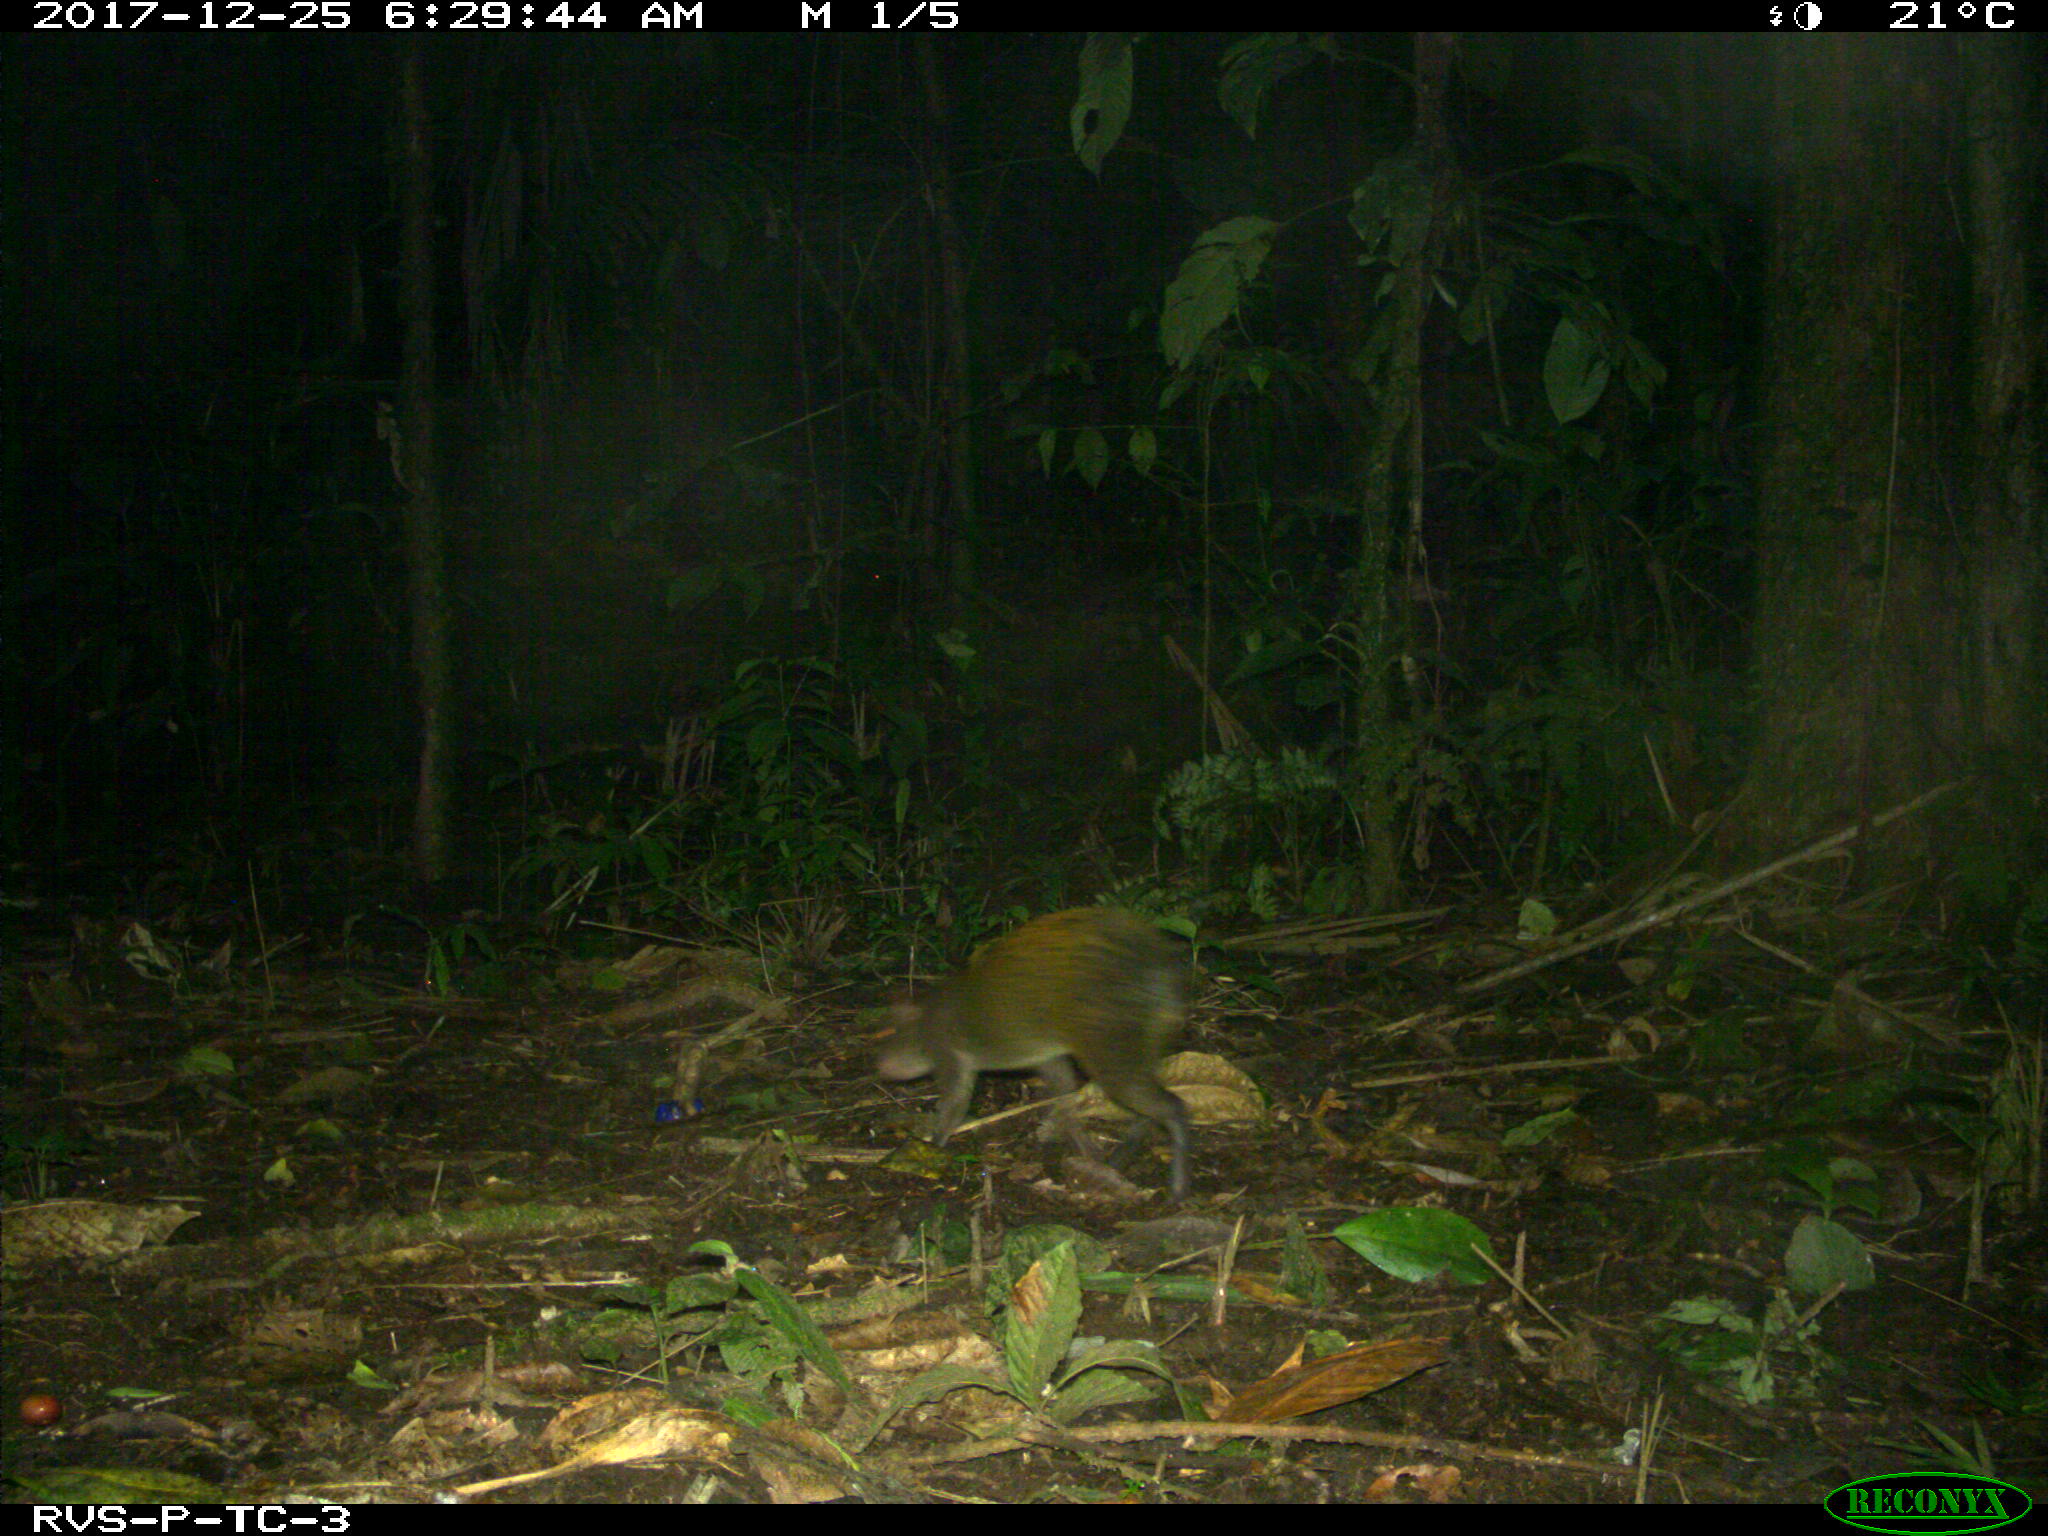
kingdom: Animalia
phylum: Chordata
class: Mammalia
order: Rodentia
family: Dasyproctidae
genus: Dasyprocta
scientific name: Dasyprocta punctata
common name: Central american agouti
